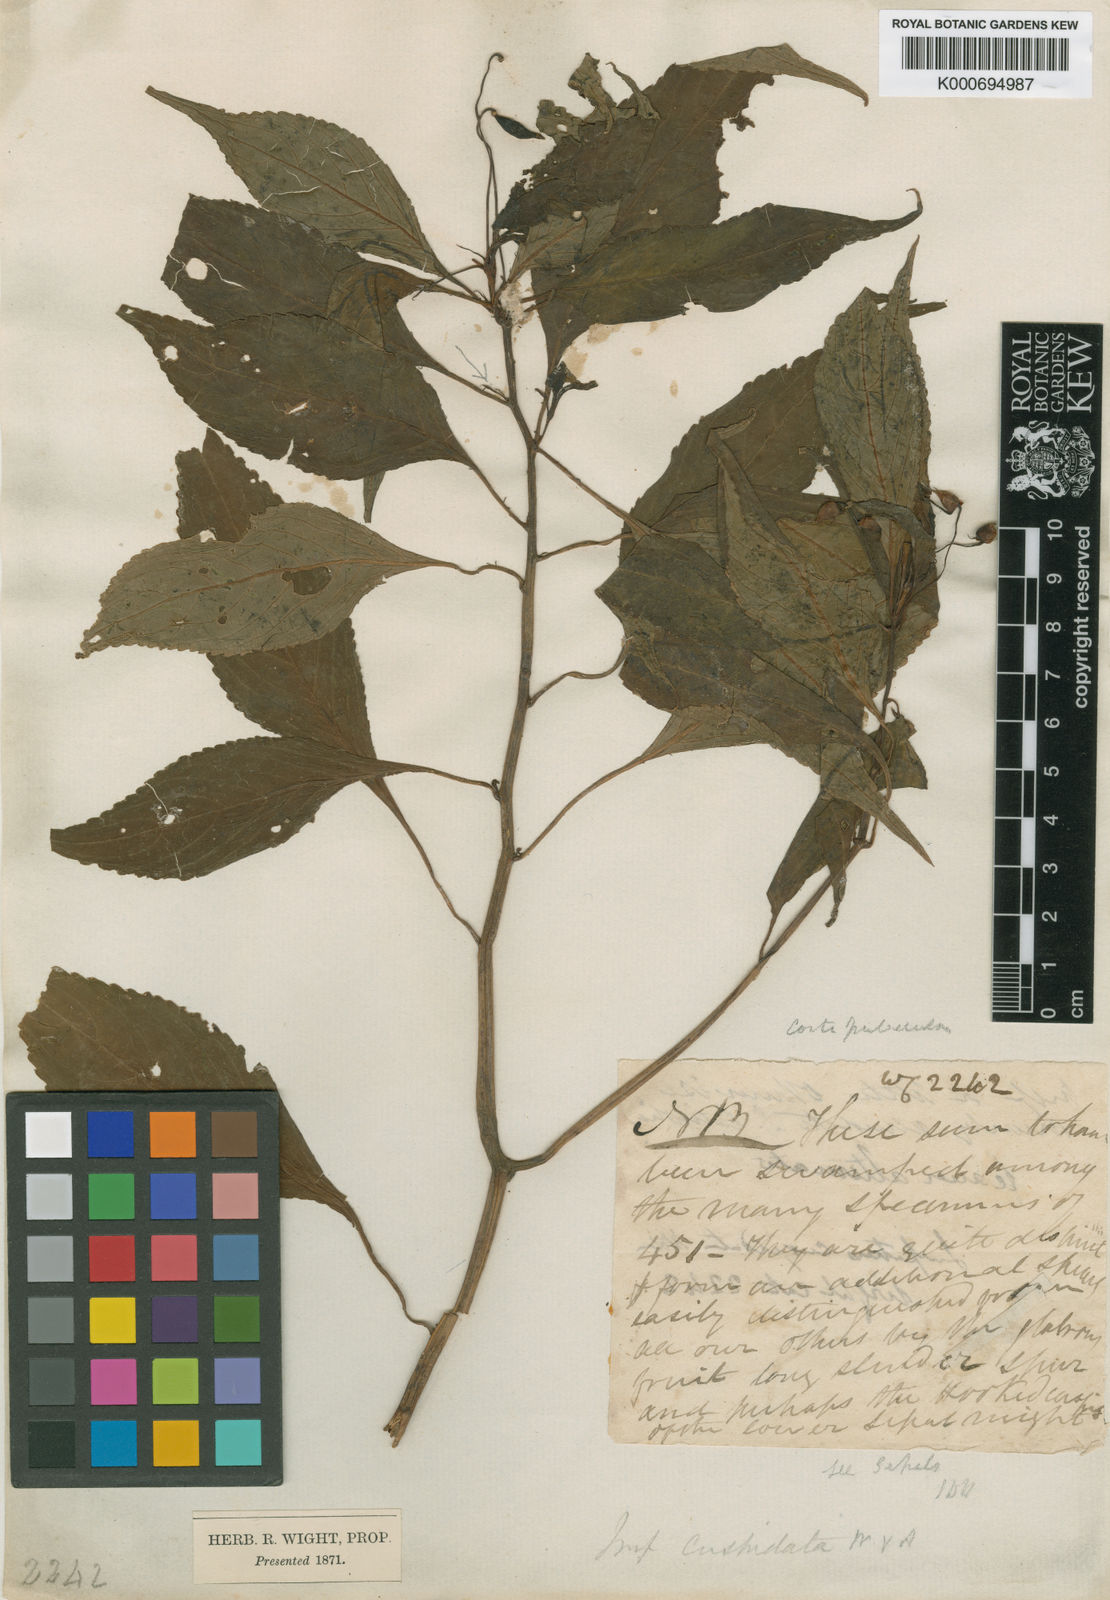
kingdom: Plantae
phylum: Tracheophyta
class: Magnoliopsida
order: Ericales
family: Balsaminaceae
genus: Impatiens
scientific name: Impatiens cuspidata
